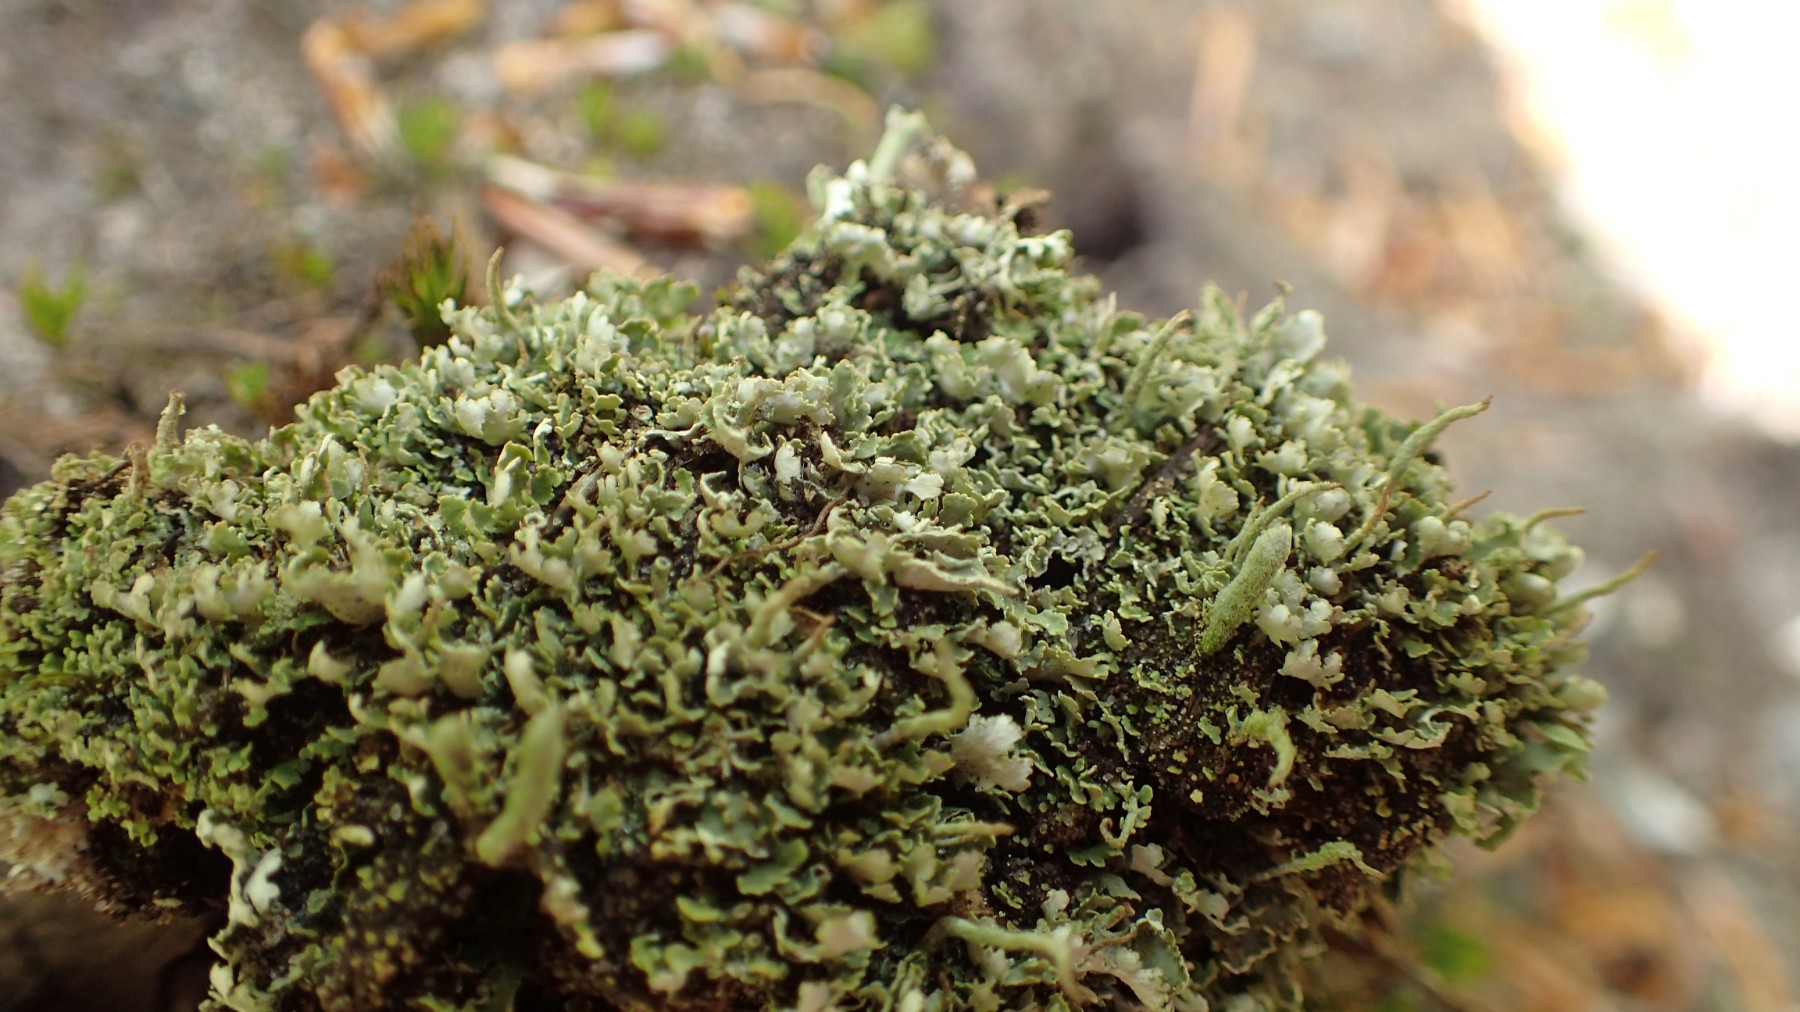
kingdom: Fungi
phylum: Ascomycota
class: Lecanoromycetes
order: Lecanorales
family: Cladoniaceae
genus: Cladonia
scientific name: Cladonia
